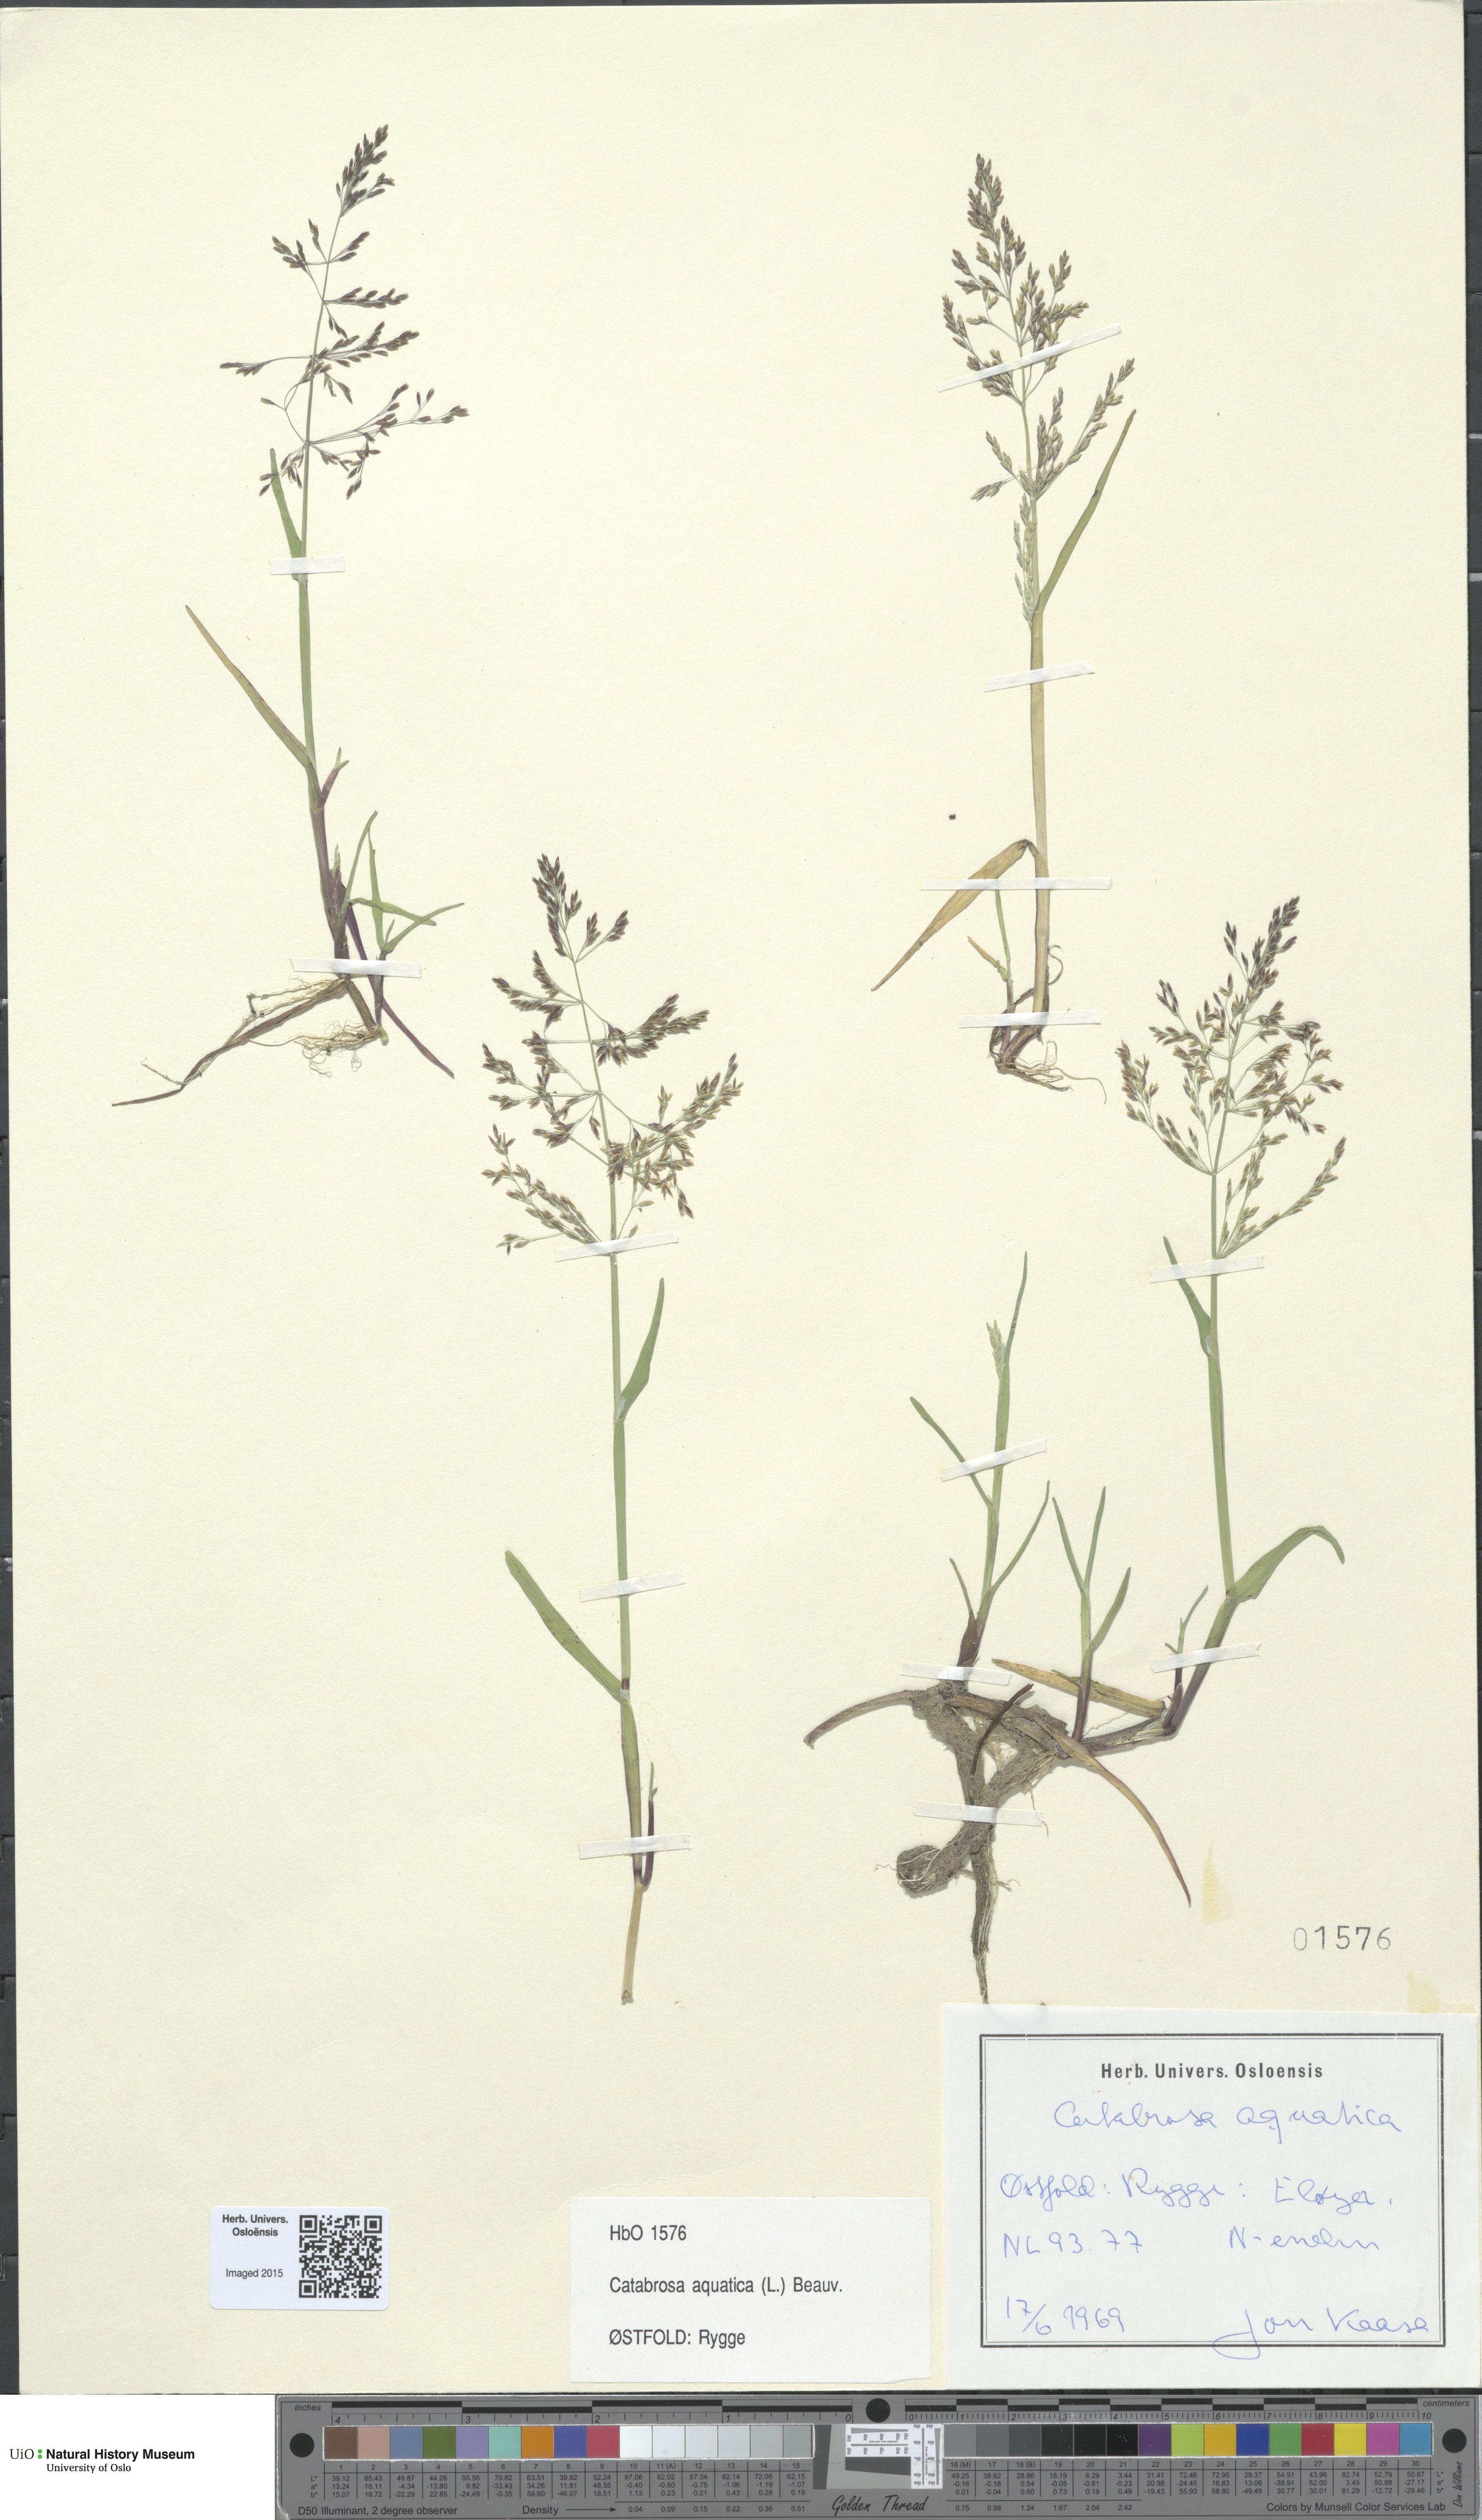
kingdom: Plantae
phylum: Tracheophyta
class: Liliopsida
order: Poales
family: Poaceae
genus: Catabrosa
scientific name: Catabrosa aquatica
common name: Whorl-grass
